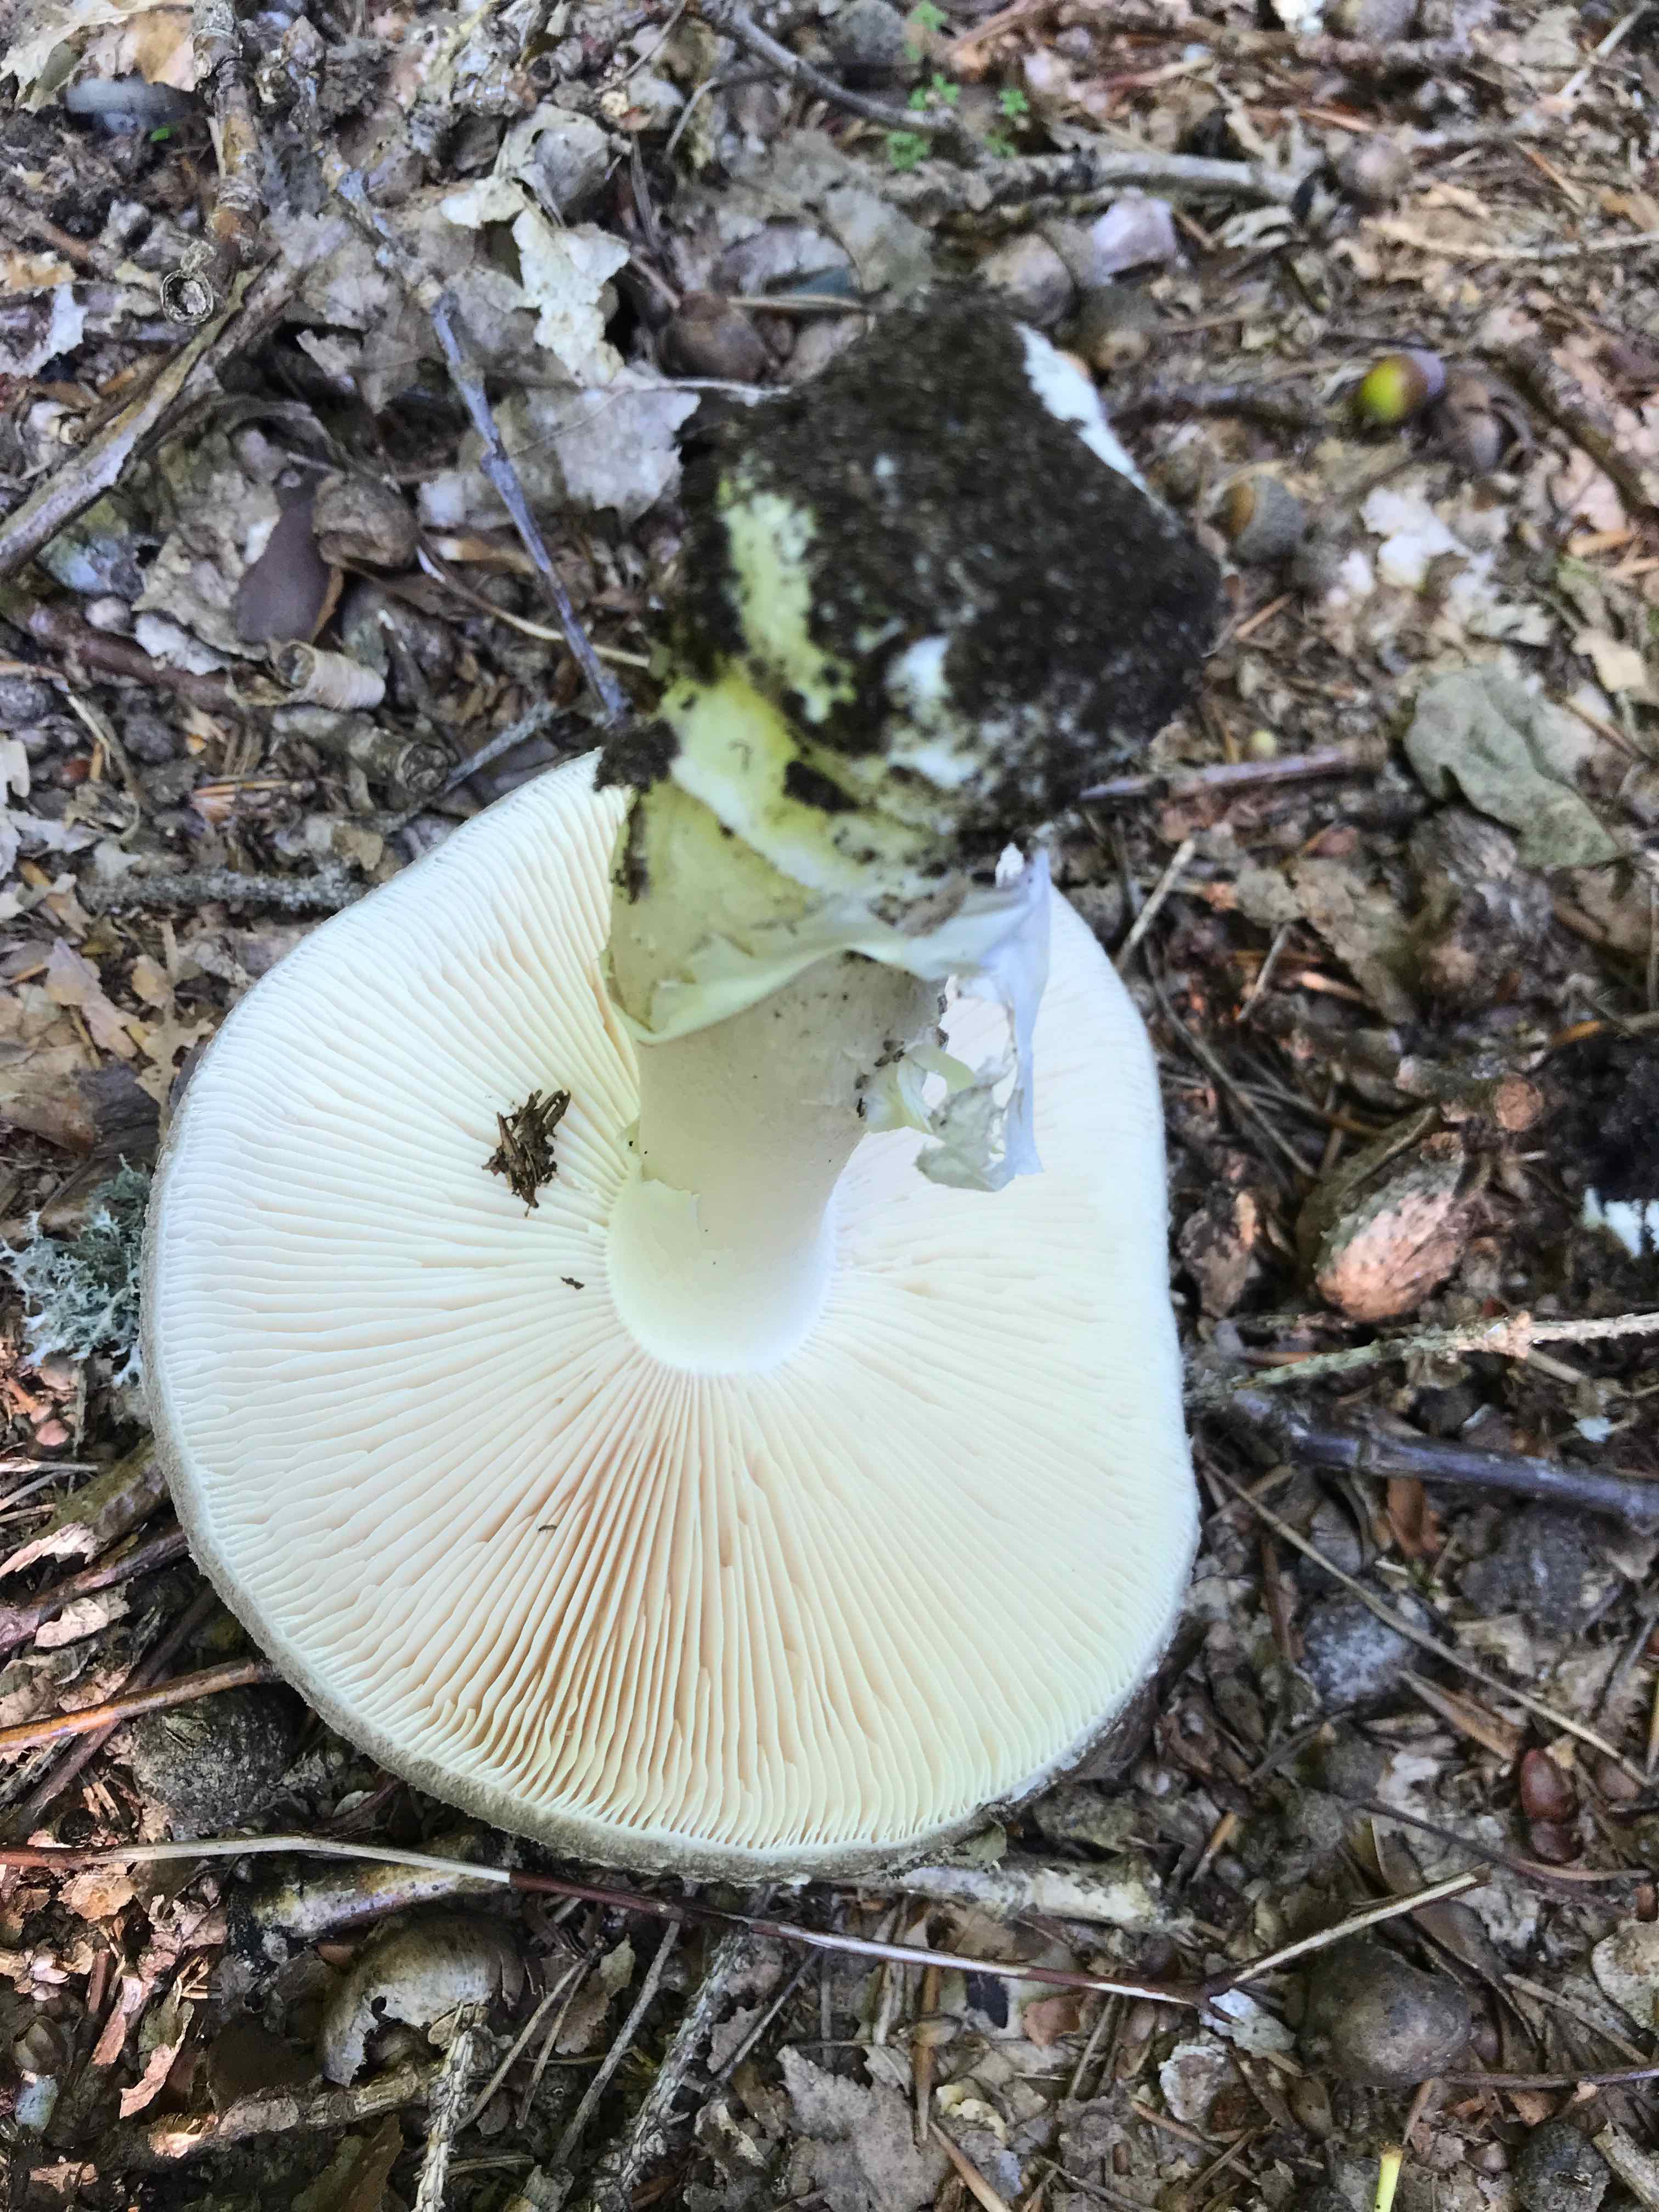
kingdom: Fungi
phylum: Basidiomycota
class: Agaricomycetes
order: Agaricales
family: Amanitaceae
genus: Amanita
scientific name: Amanita franchetii
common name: gulrandet fluesvamp
